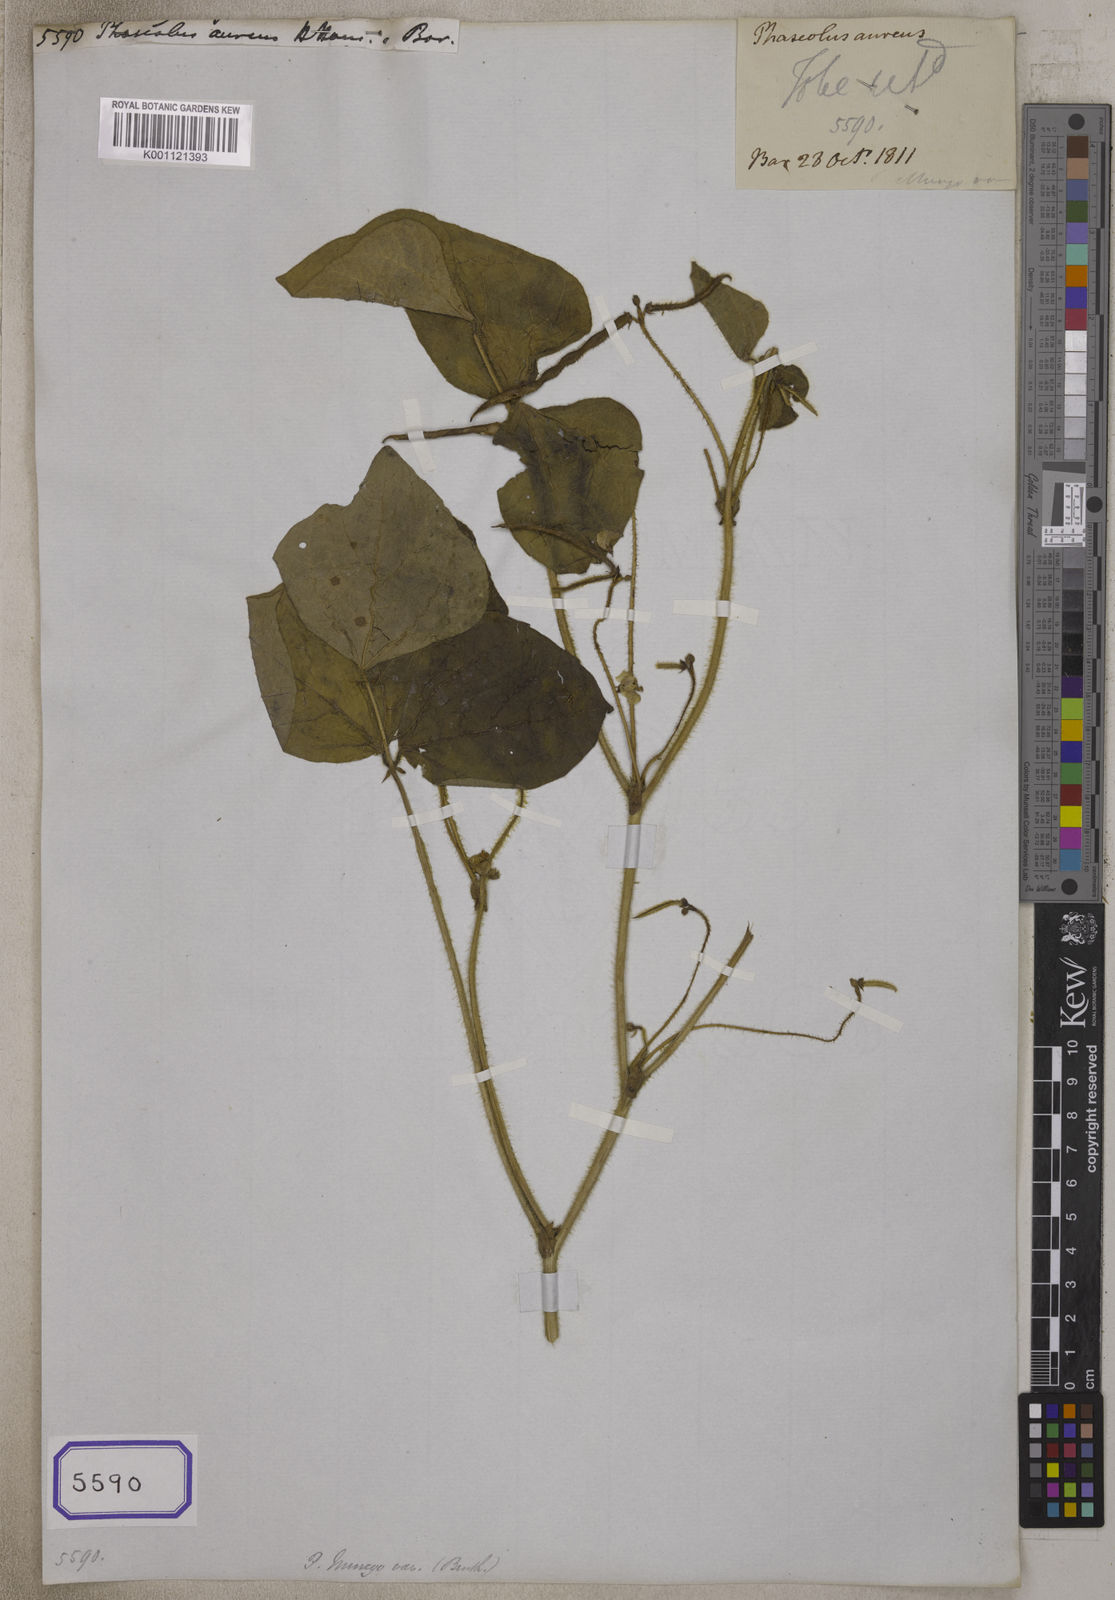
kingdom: Plantae
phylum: Tracheophyta
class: Magnoliopsida
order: Fabales
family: Fabaceae
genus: Vigna
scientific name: Vigna radiata
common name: Mung-bean
